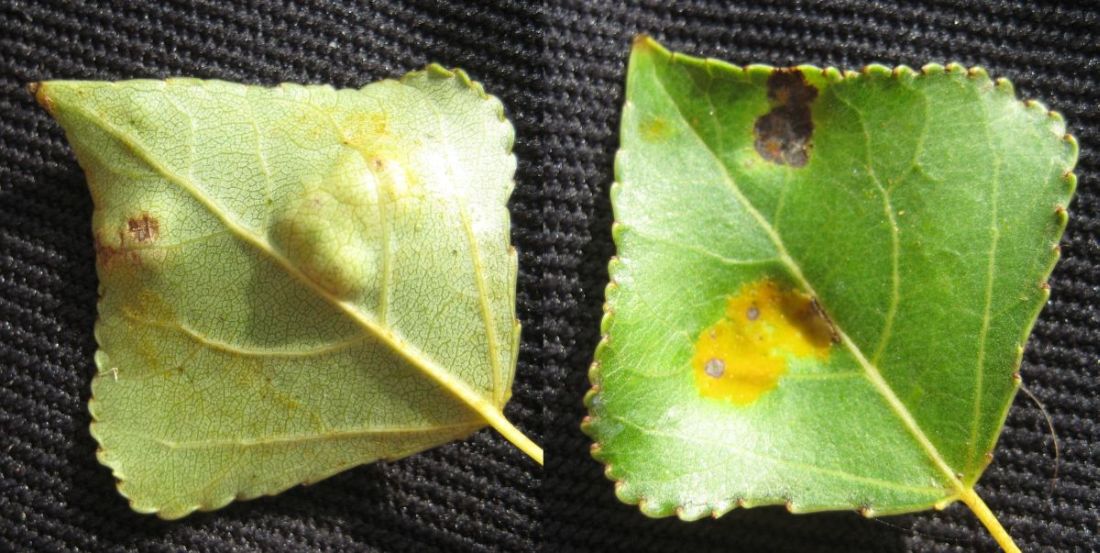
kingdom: Fungi
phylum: Ascomycota
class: Taphrinomycetes
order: Taphrinales
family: Taphrinaceae
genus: Taphrina
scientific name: Taphrina populina
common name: Poplar leaf curl
